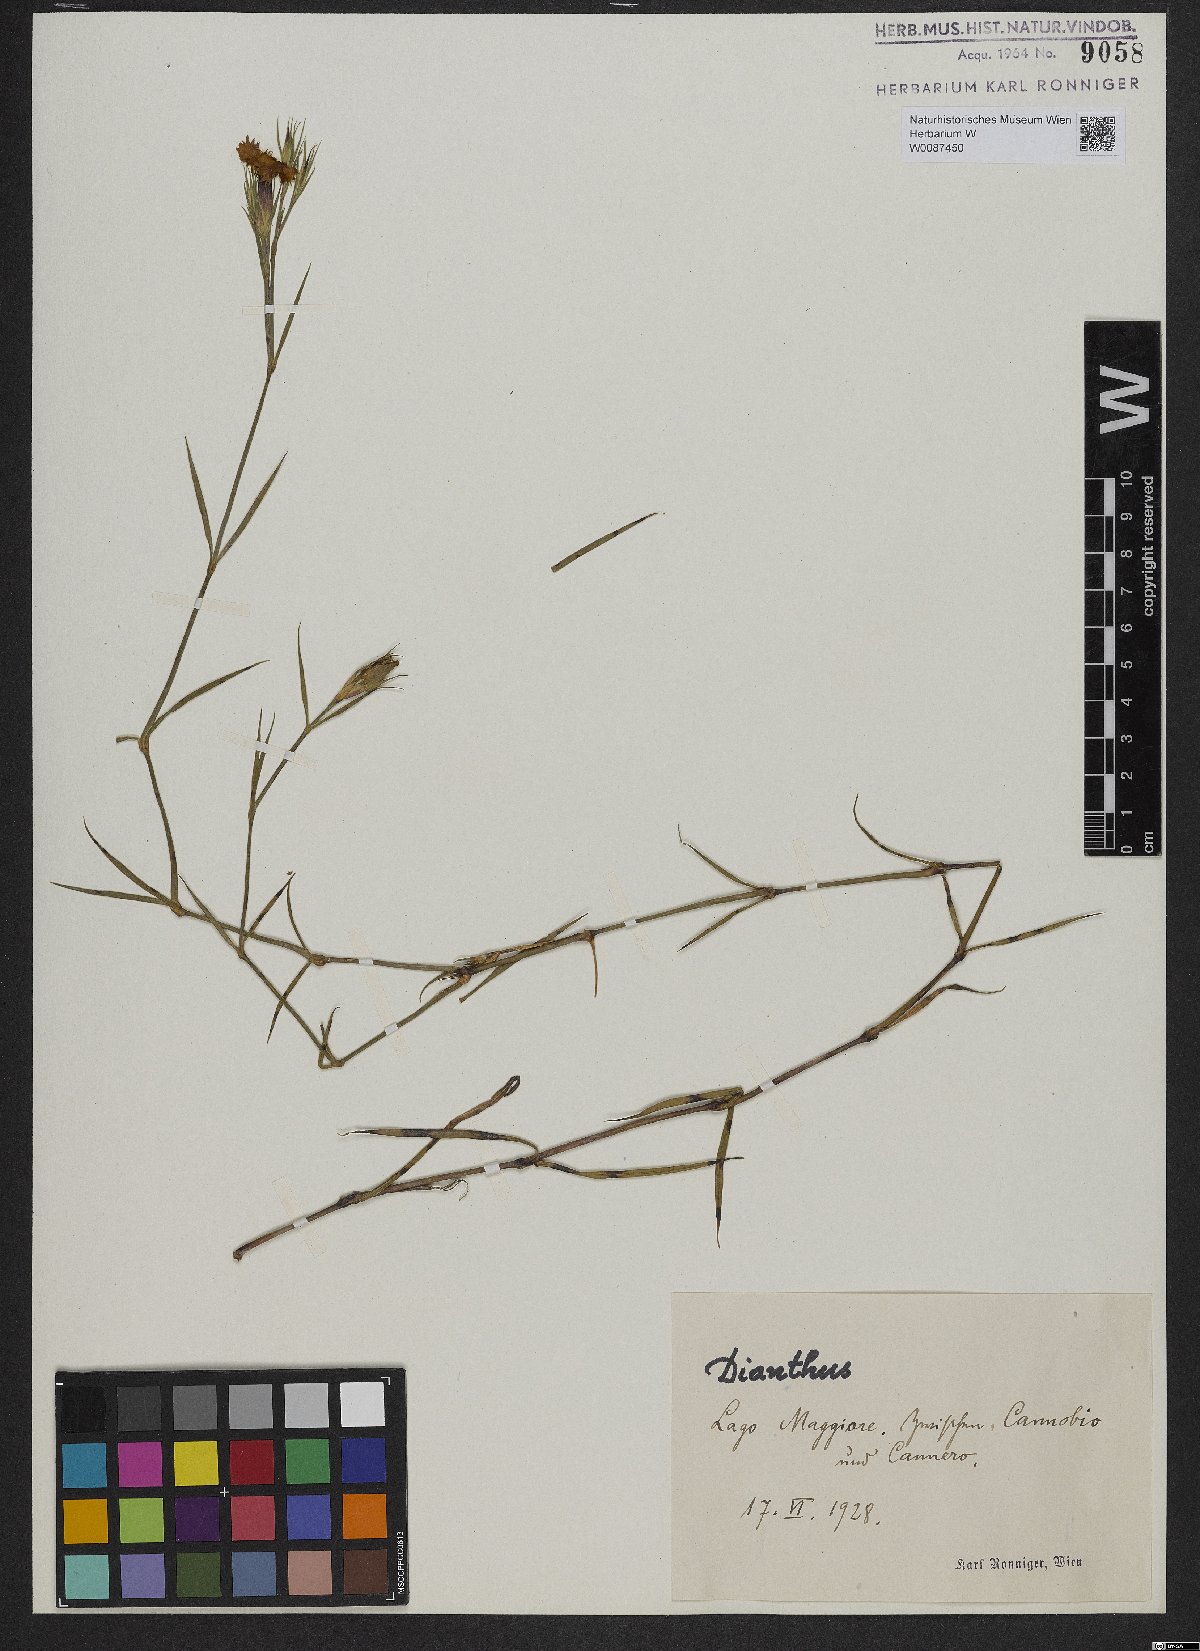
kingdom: Plantae
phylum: Tracheophyta
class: Magnoliopsida
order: Caryophyllales
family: Caryophyllaceae
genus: Dianthus
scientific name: Dianthus
